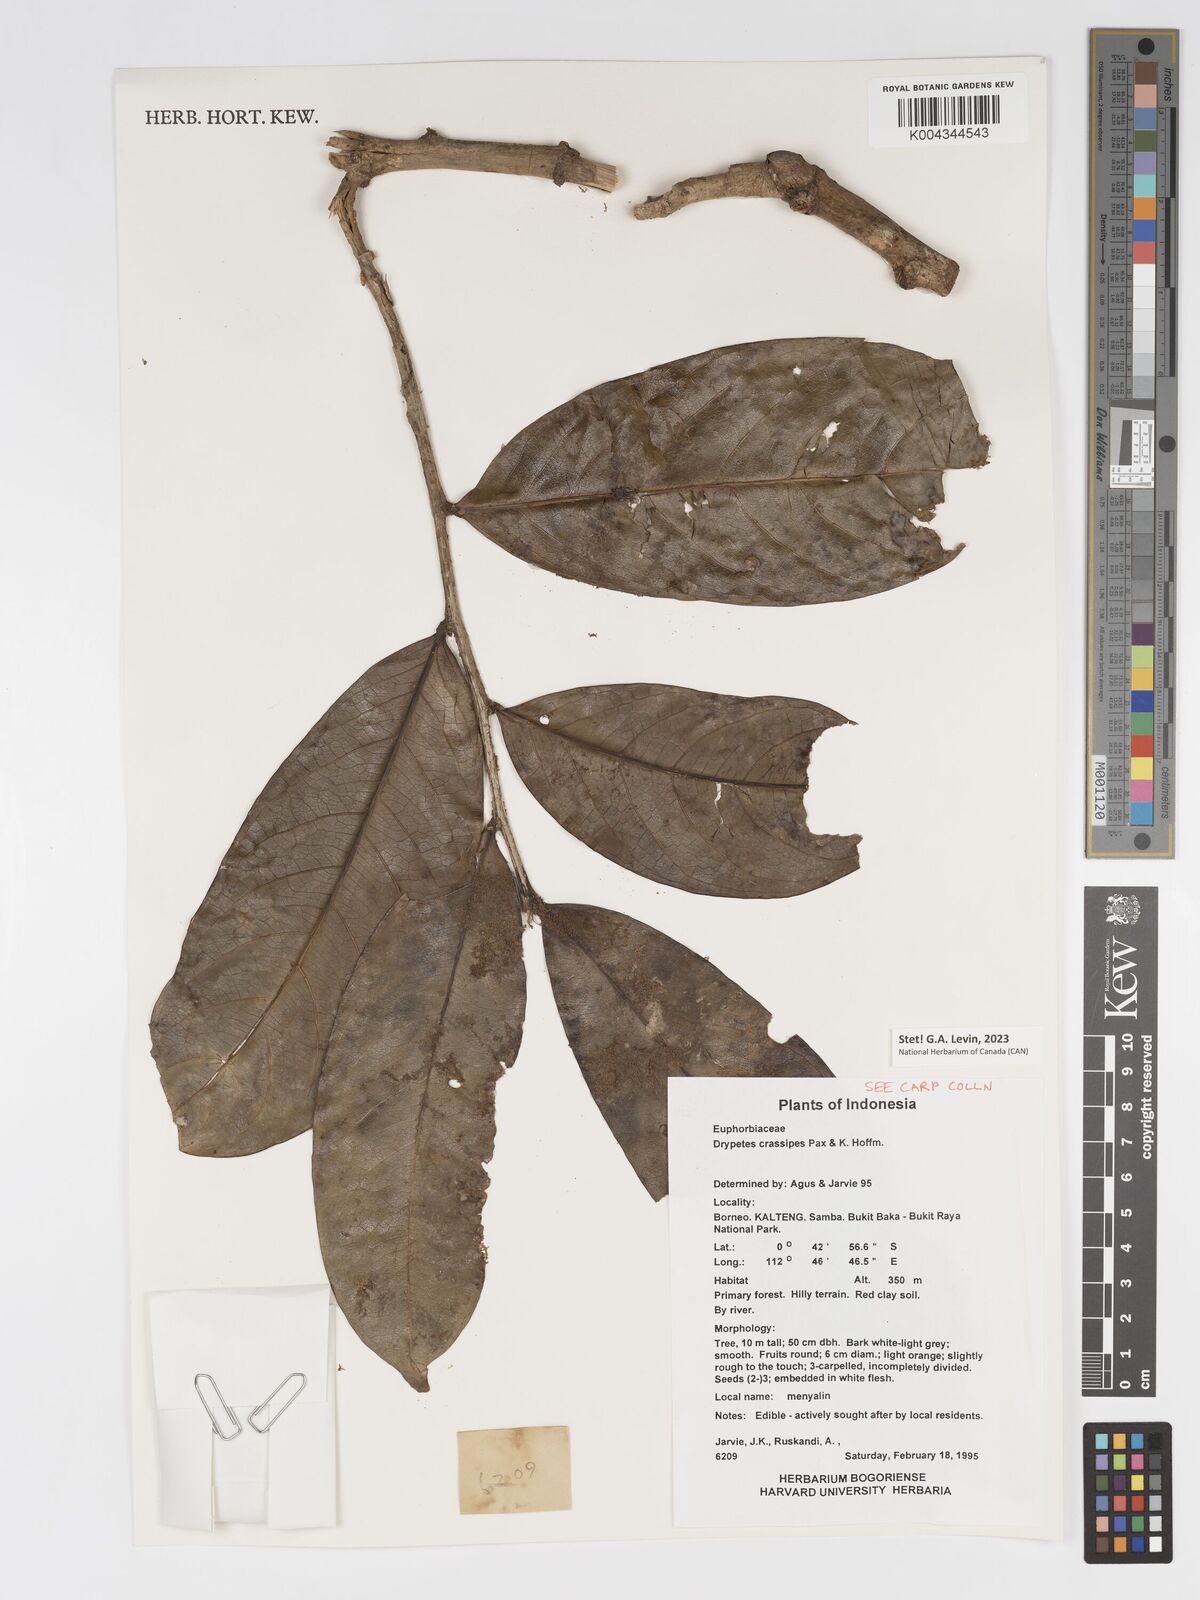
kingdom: Plantae
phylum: Tracheophyta
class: Magnoliopsida
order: Malpighiales
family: Putranjivaceae
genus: Drypetes
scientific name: Drypetes crassipes
